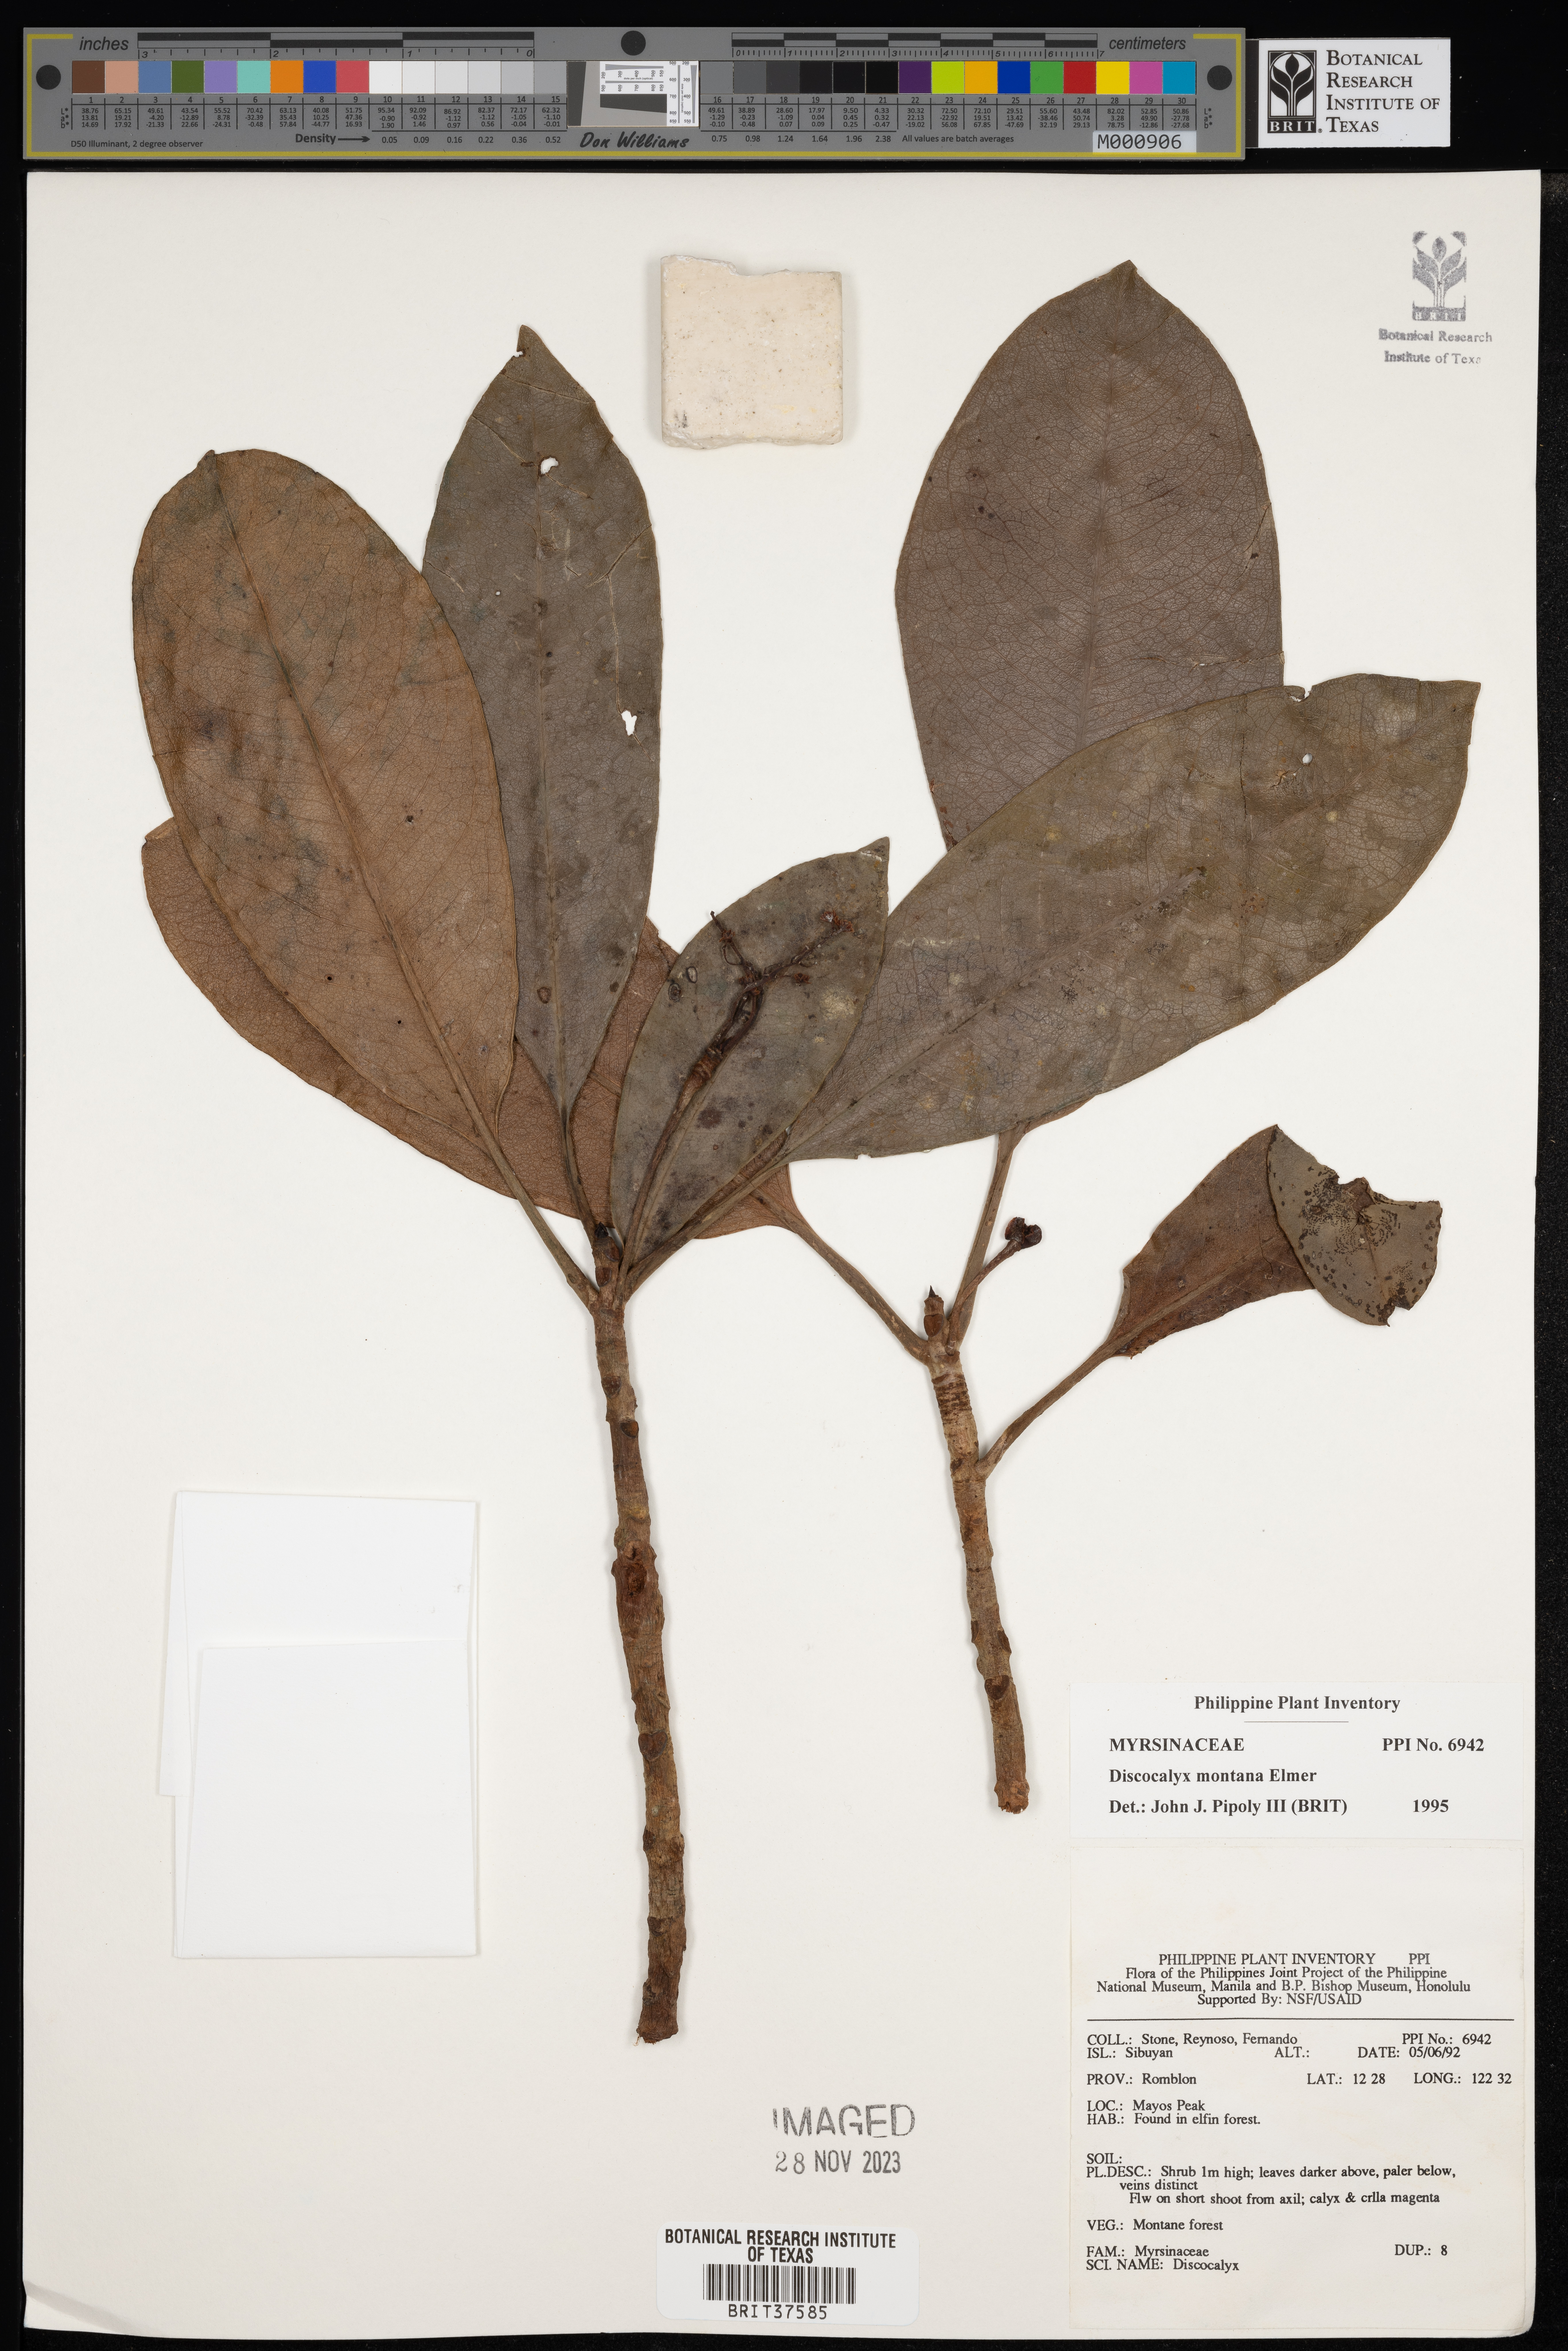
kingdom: Plantae
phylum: Tracheophyta
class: Magnoliopsida
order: Ericales
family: Primulaceae
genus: Discocalyx
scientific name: Discocalyx
